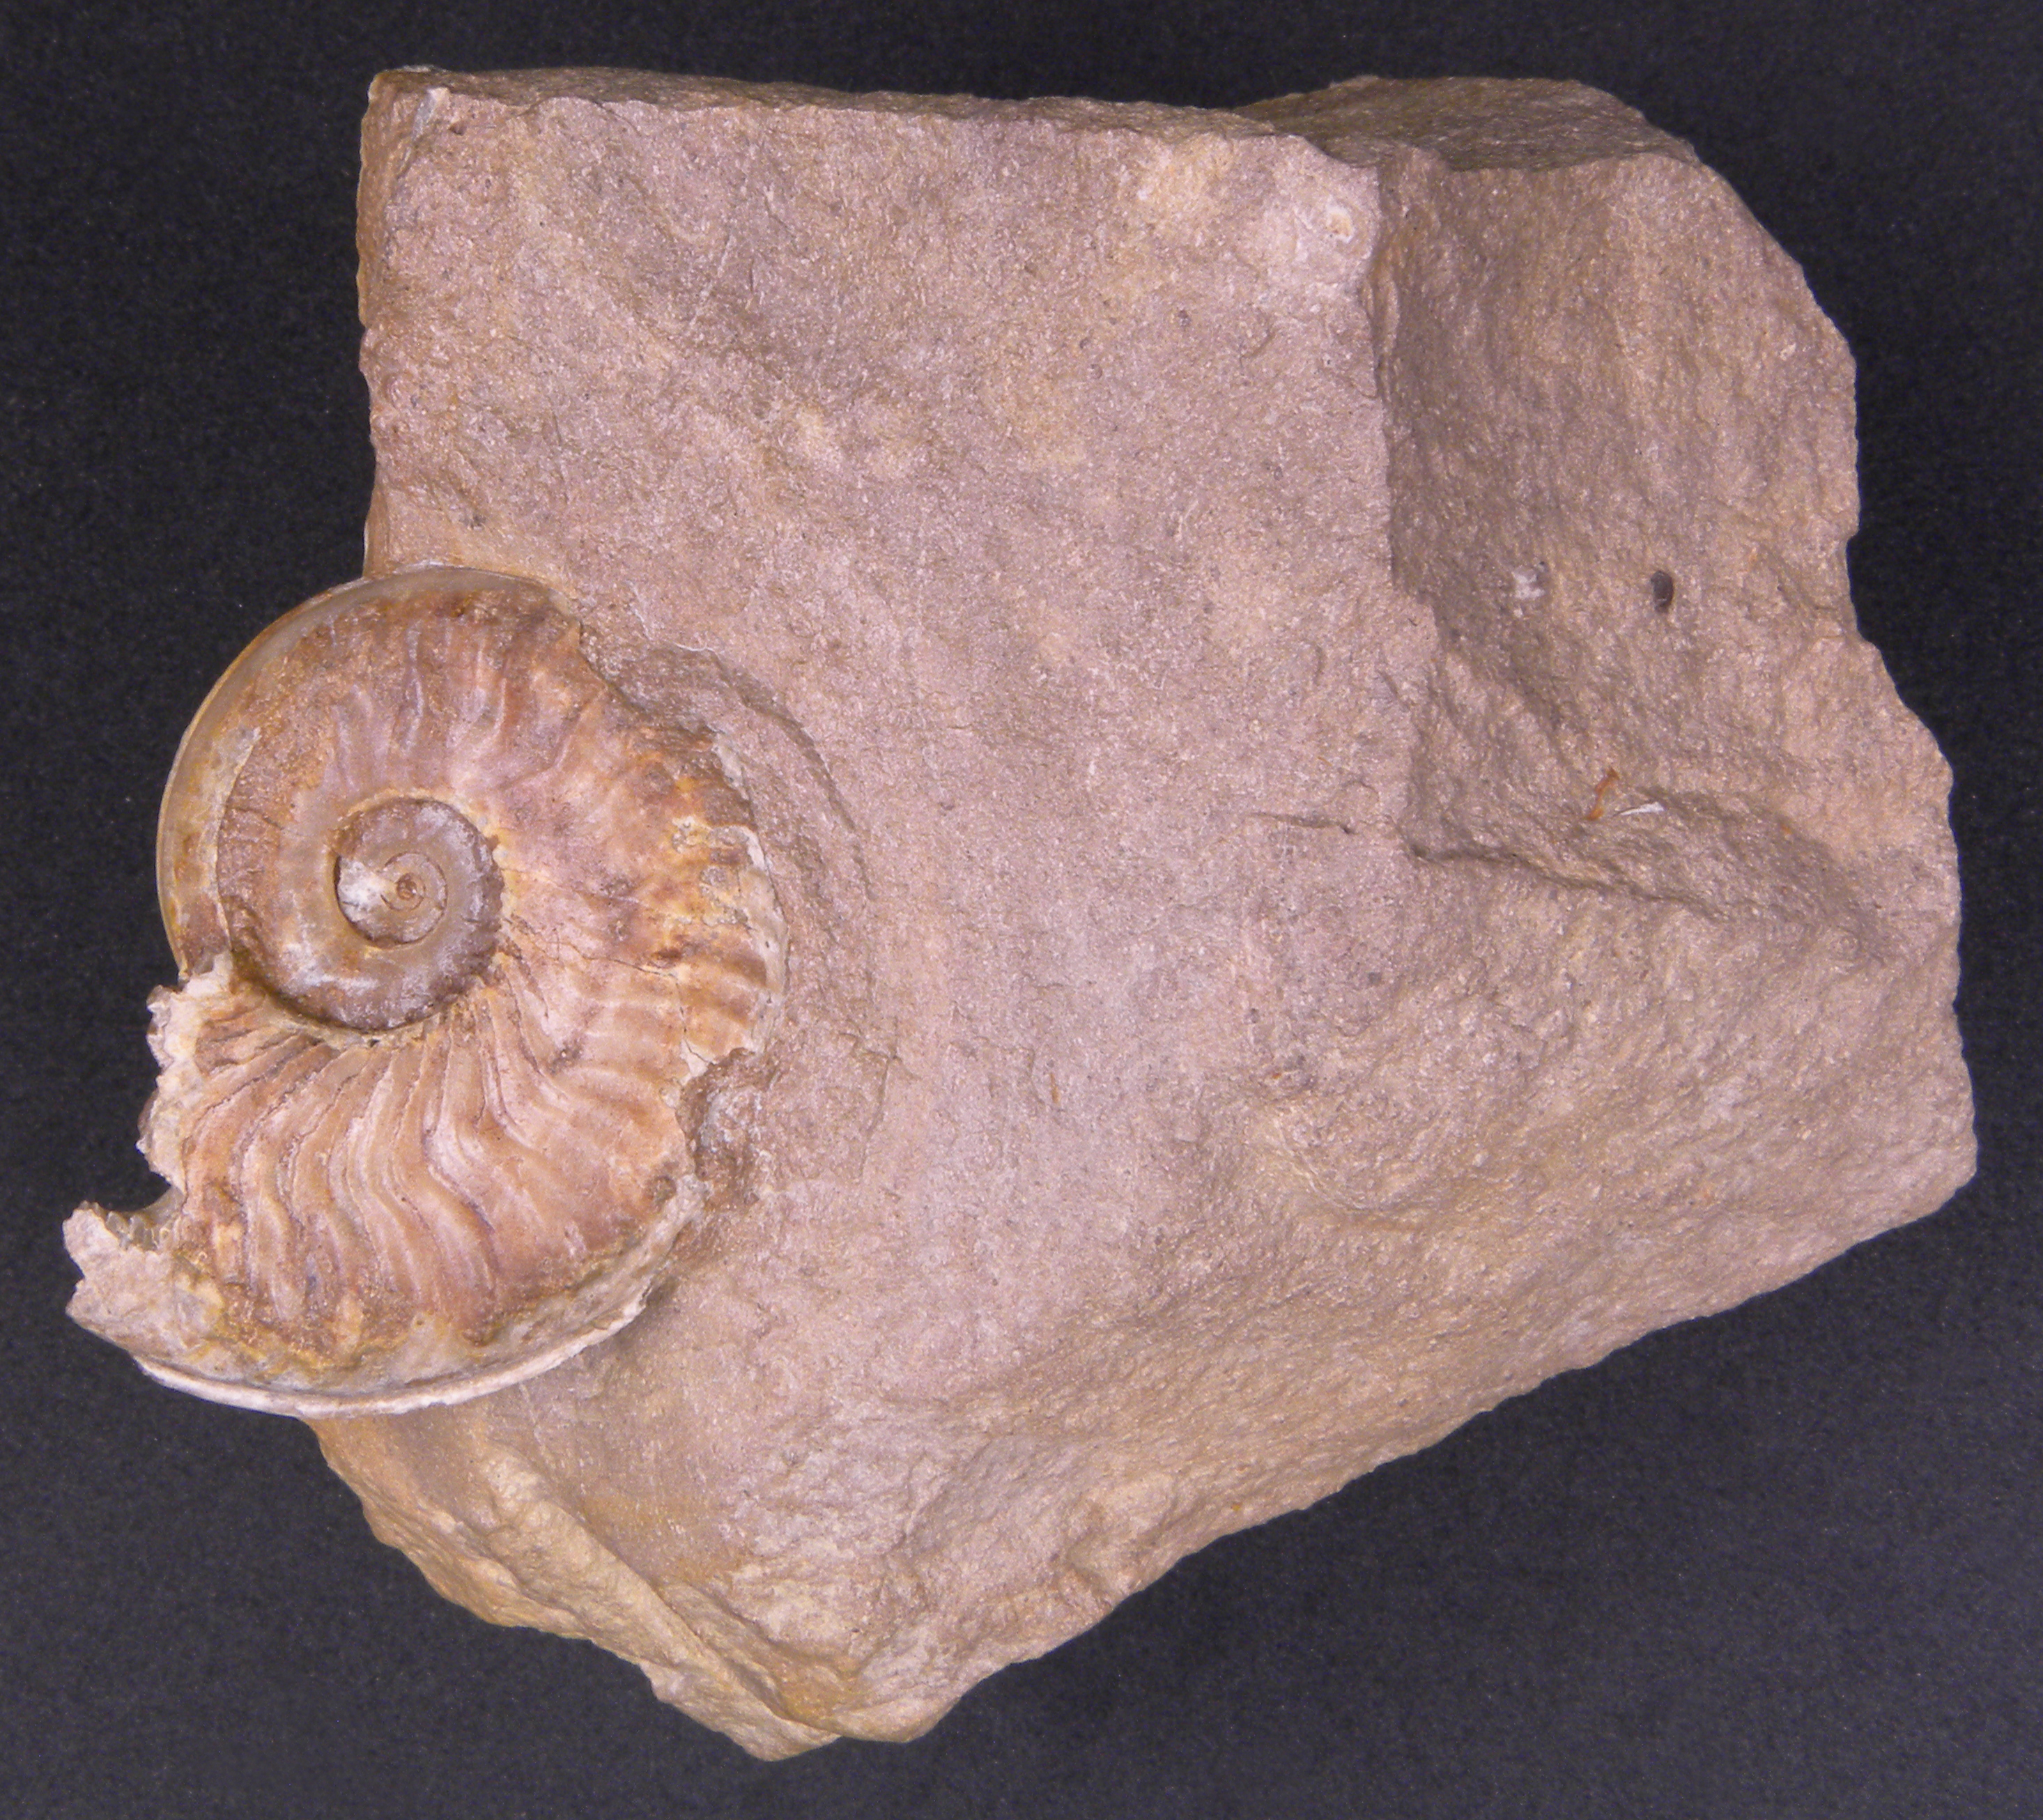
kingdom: Animalia
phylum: Mollusca
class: Cephalopoda
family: Hildoceratidae
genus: Eleganticeras
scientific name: Eleganticeras elegantulum
